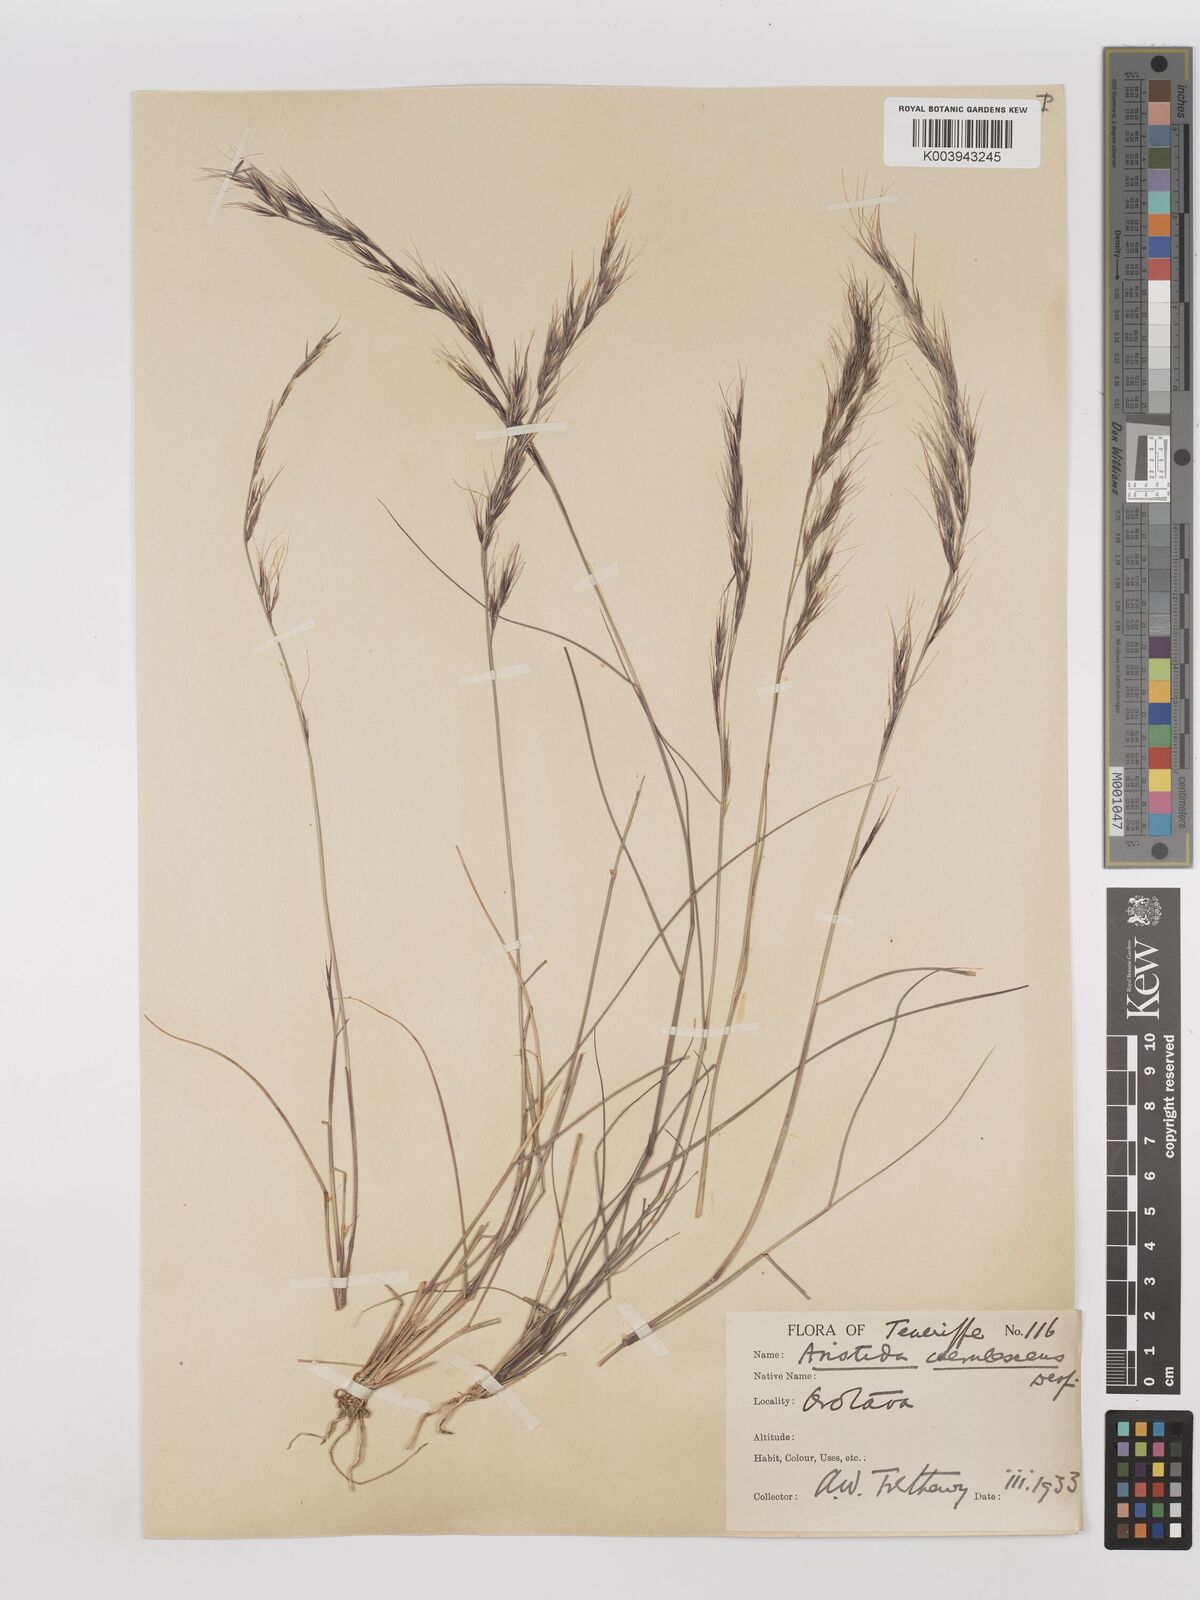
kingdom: Plantae
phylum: Tracheophyta
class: Liliopsida
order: Poales
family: Poaceae
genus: Aristida
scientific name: Aristida adscensionis
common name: Sixweeks threeawn
